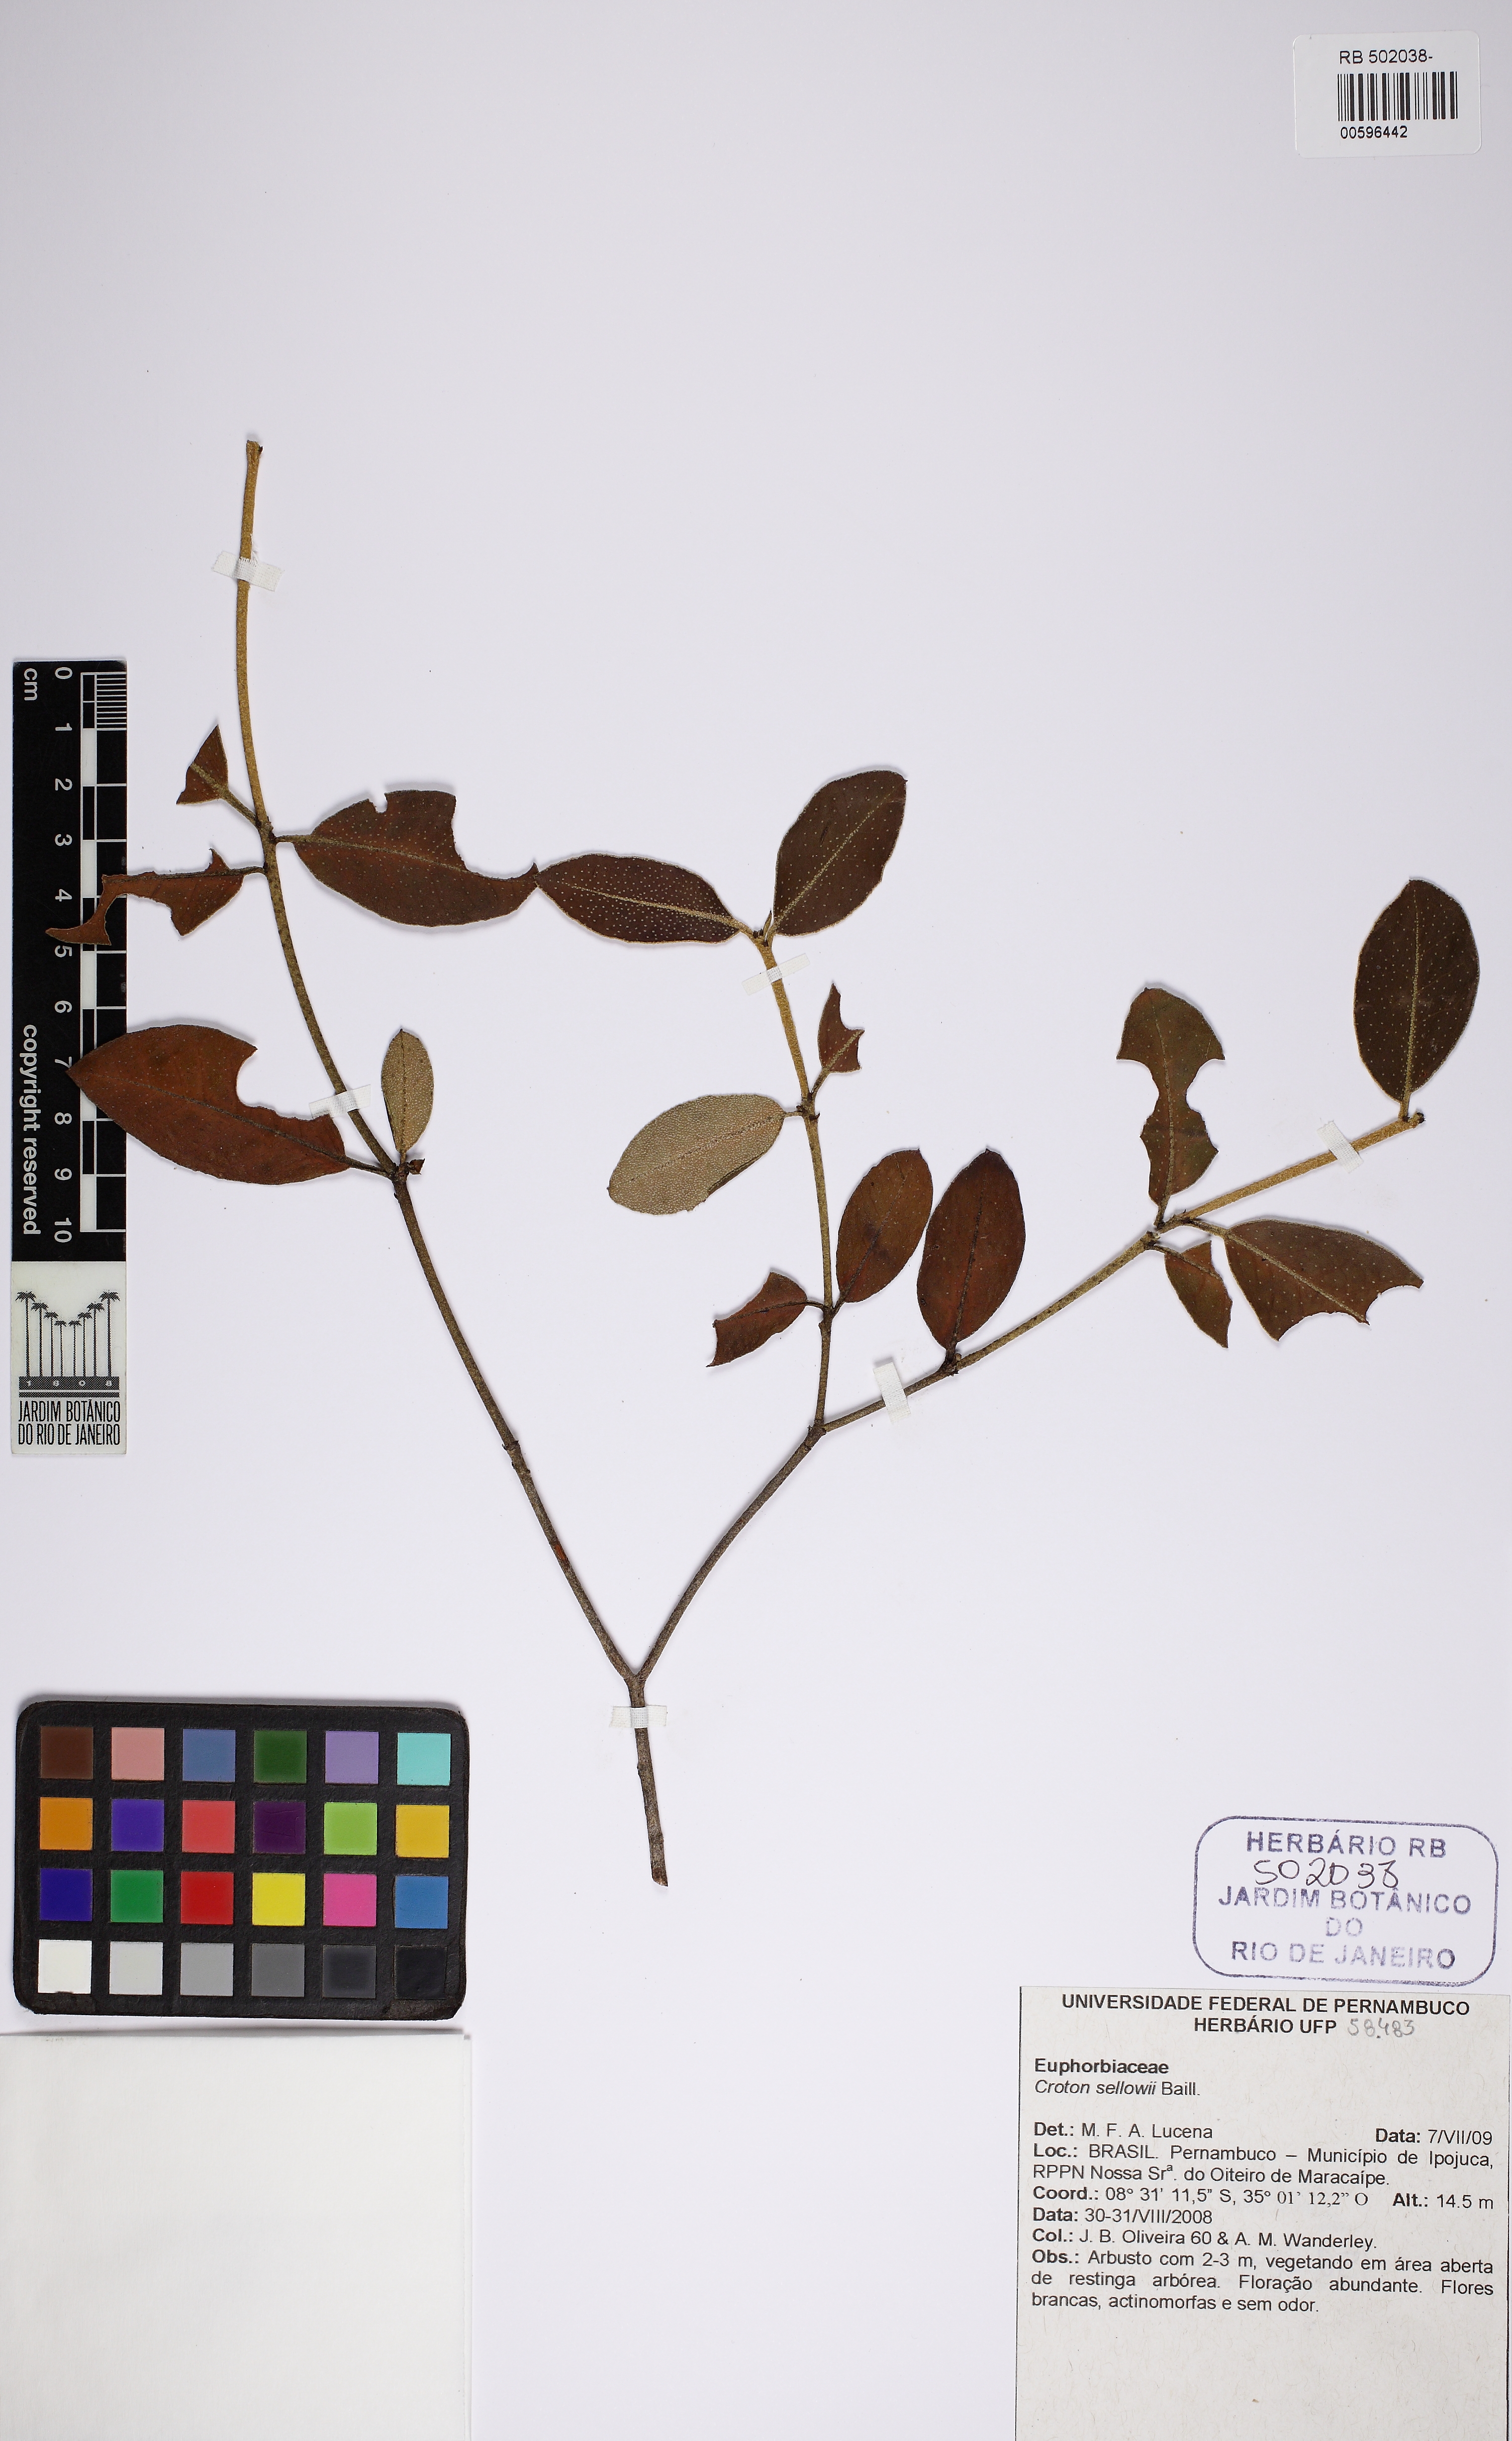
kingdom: Plantae
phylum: Tracheophyta
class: Magnoliopsida
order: Malpighiales
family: Euphorbiaceae
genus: Croton
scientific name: Croton sellowii
